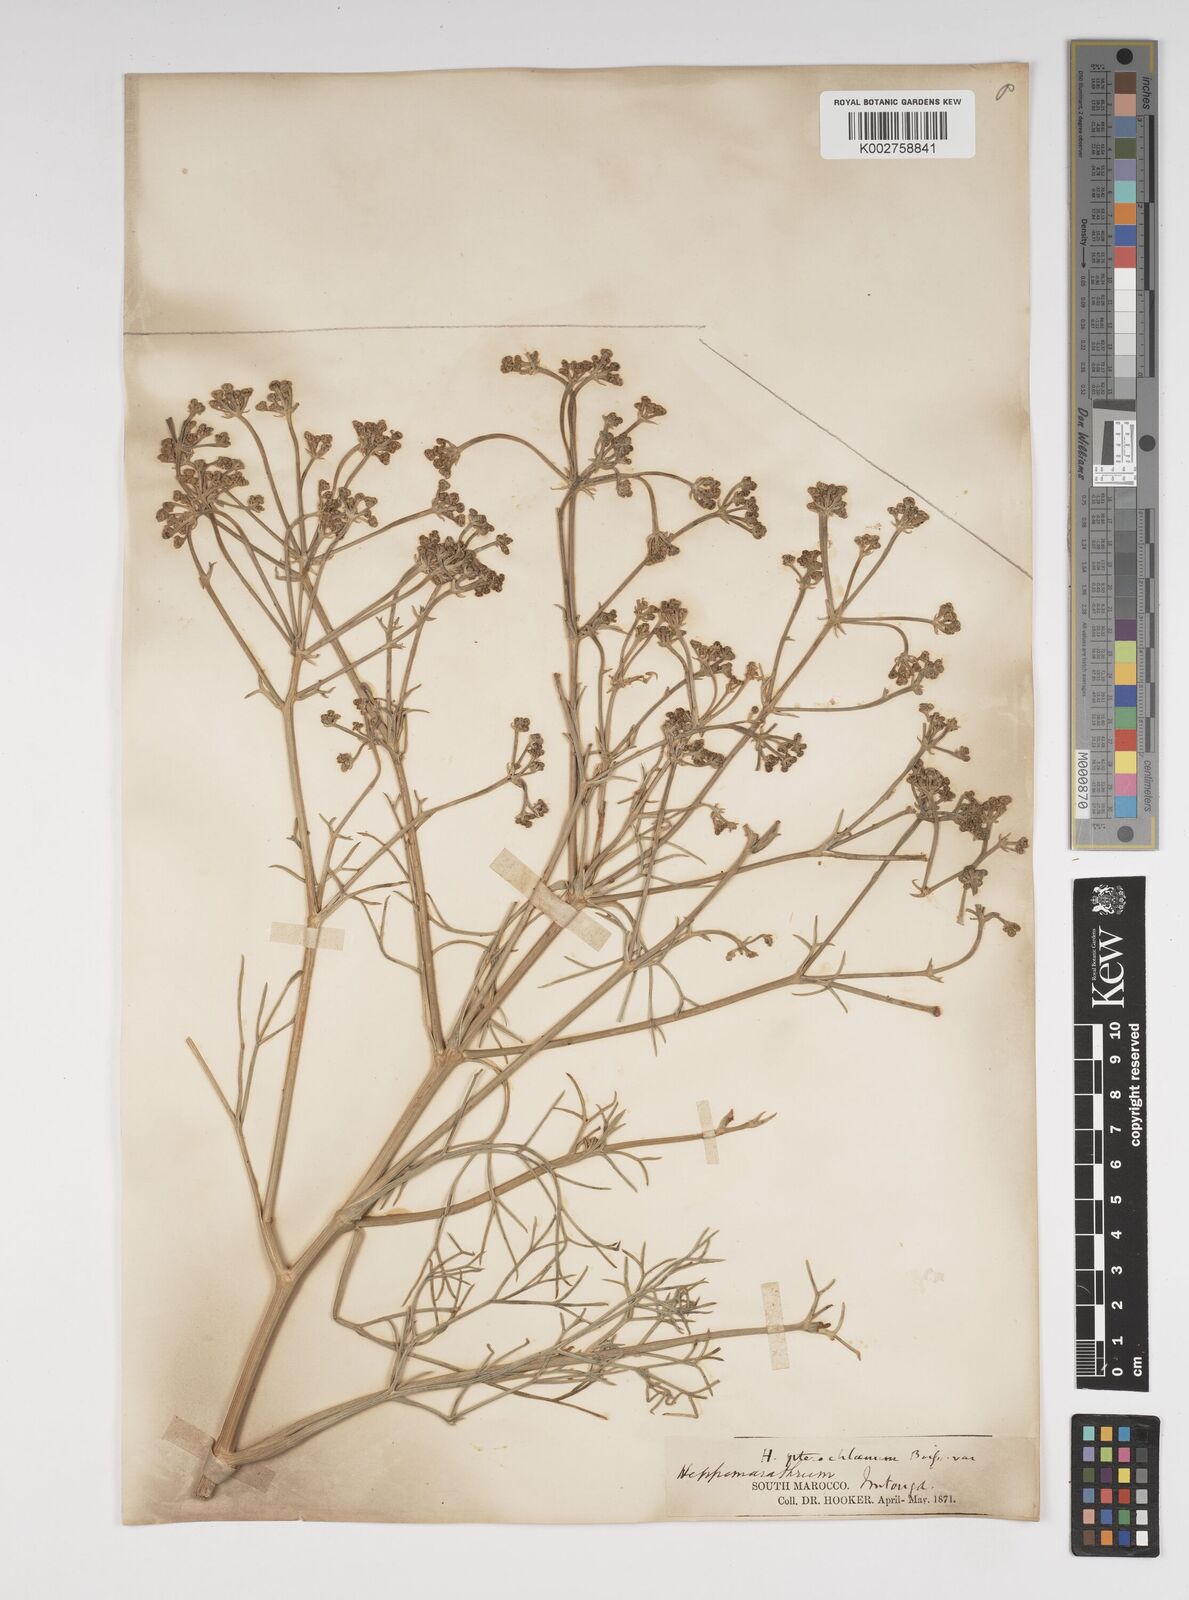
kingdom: Plantae
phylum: Tracheophyta
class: Magnoliopsida
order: Apiales
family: Apiaceae
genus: Cachrys
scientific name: Cachrys sicula
